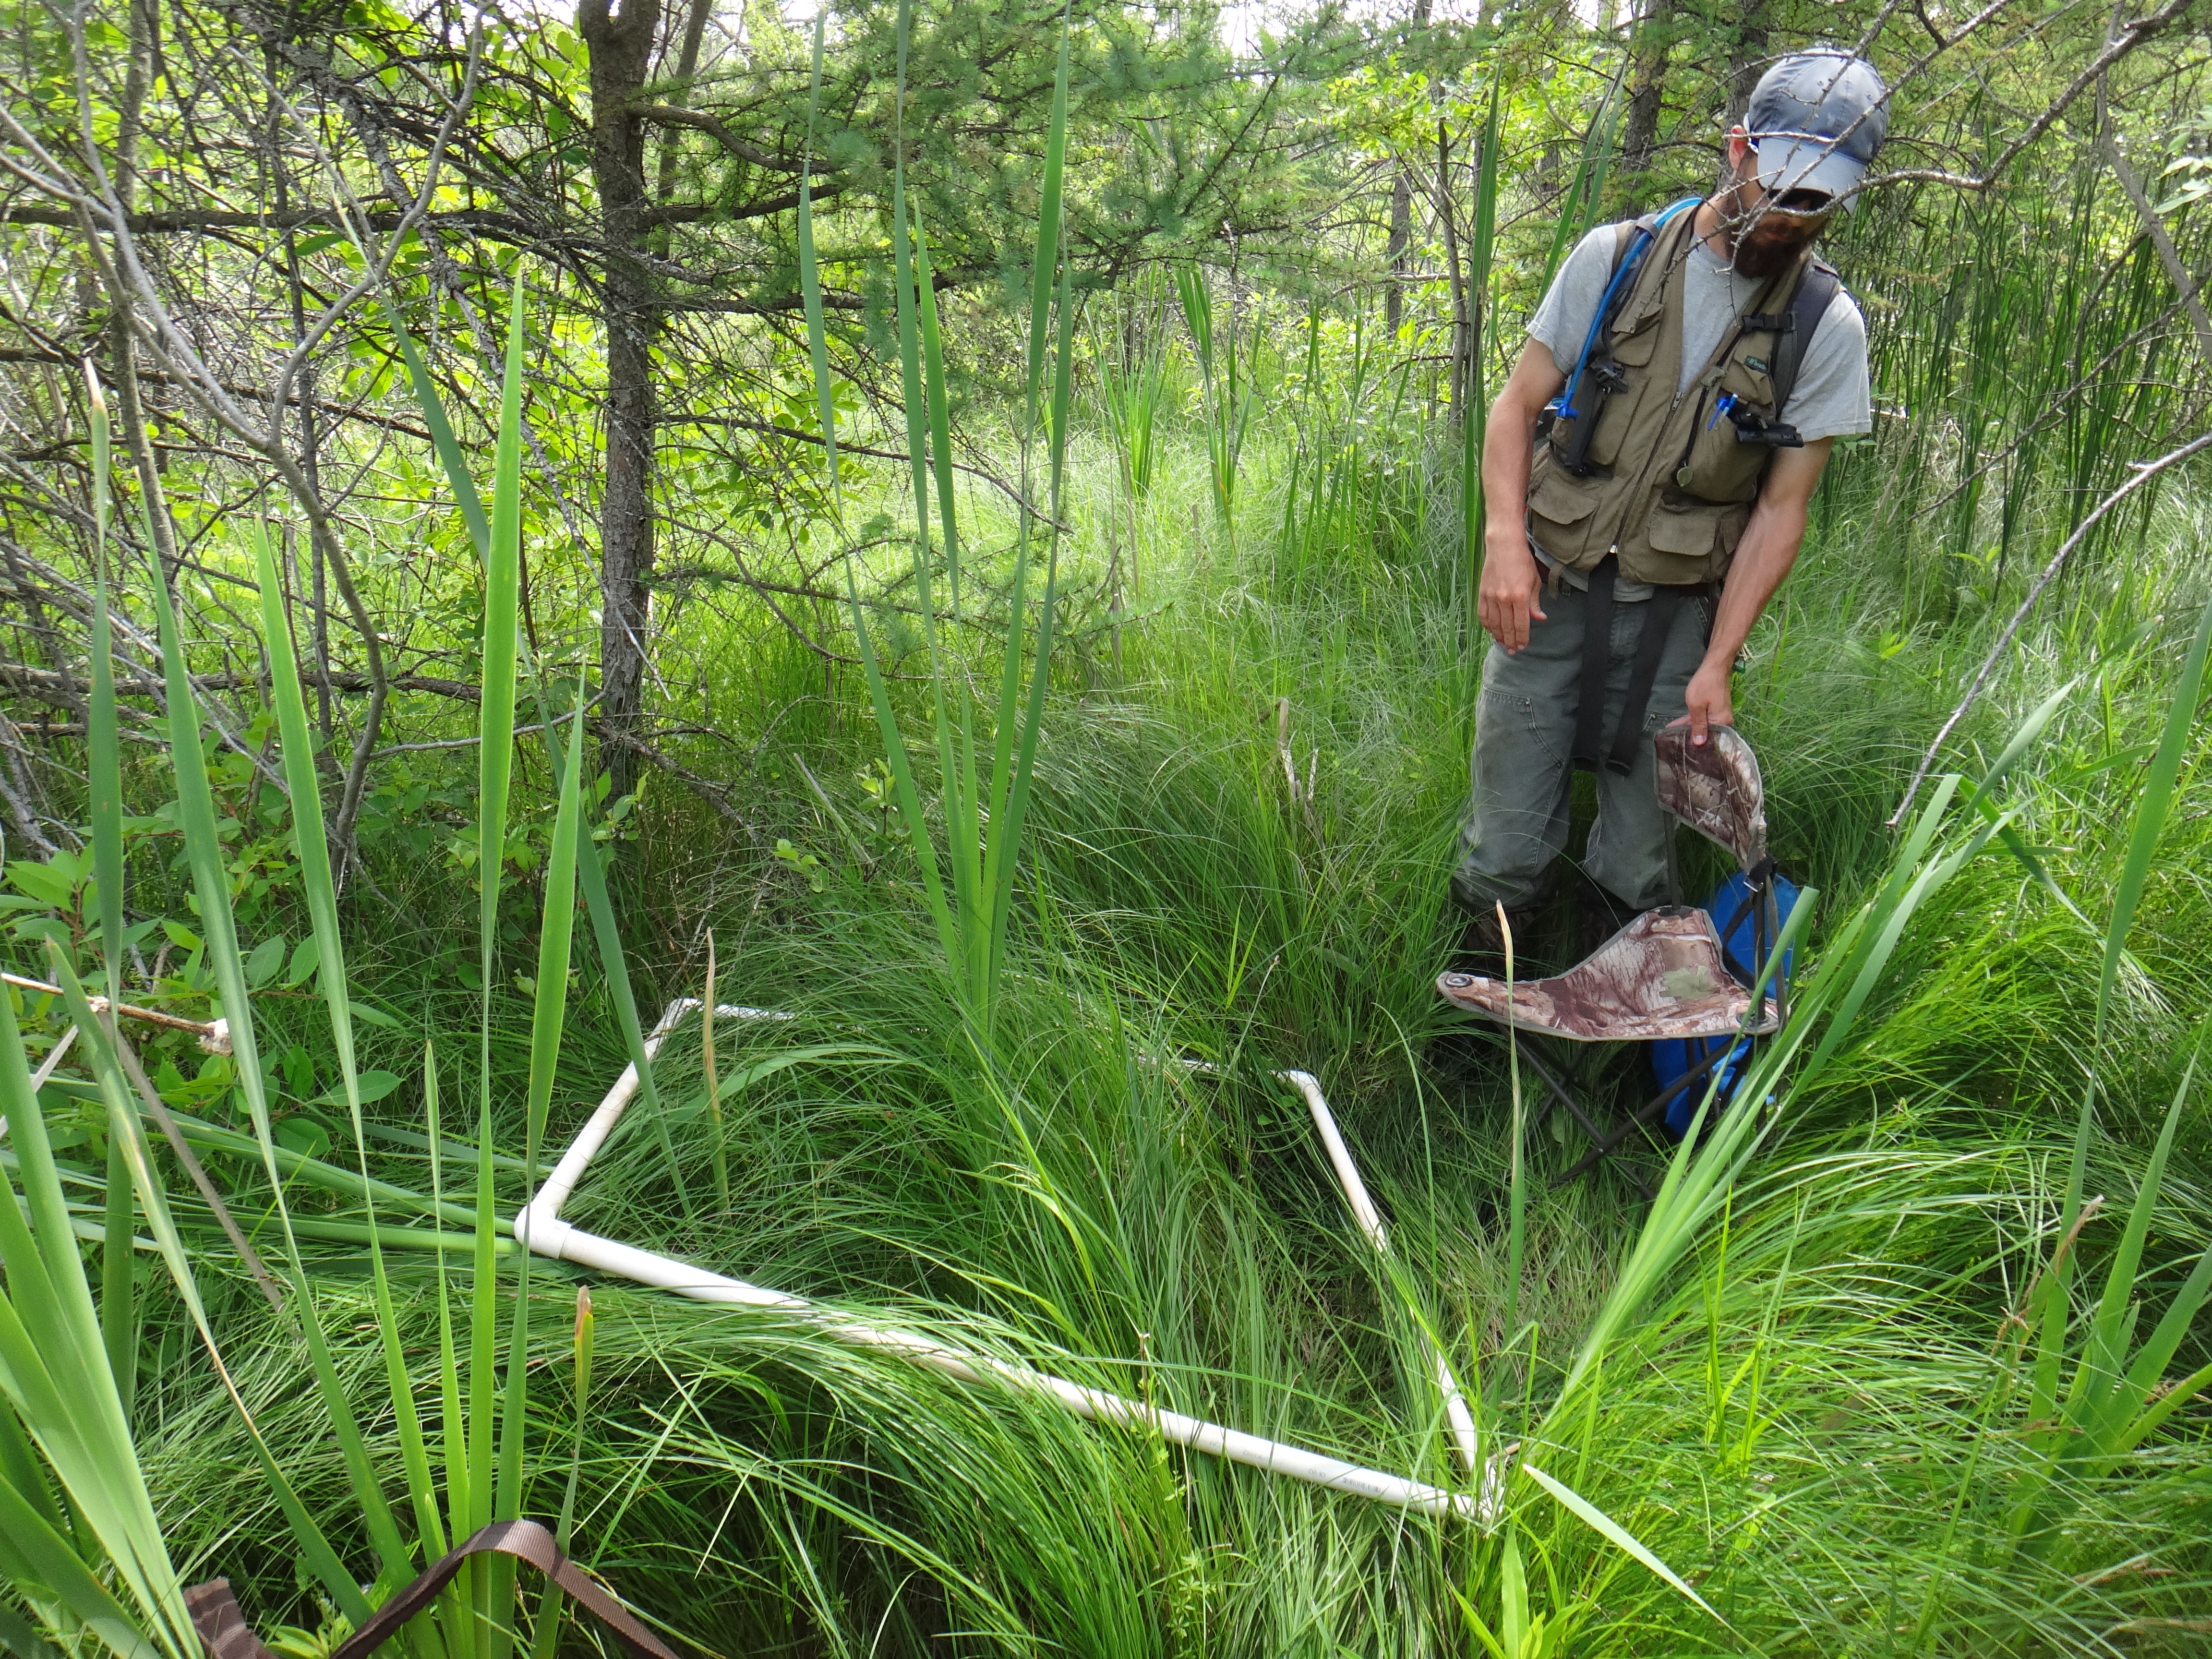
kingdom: Plantae
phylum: Tracheophyta
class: Magnoliopsida
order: Gentianales
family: Rubiaceae
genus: Galium
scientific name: Galium asprellum
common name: Rough bedstraw
